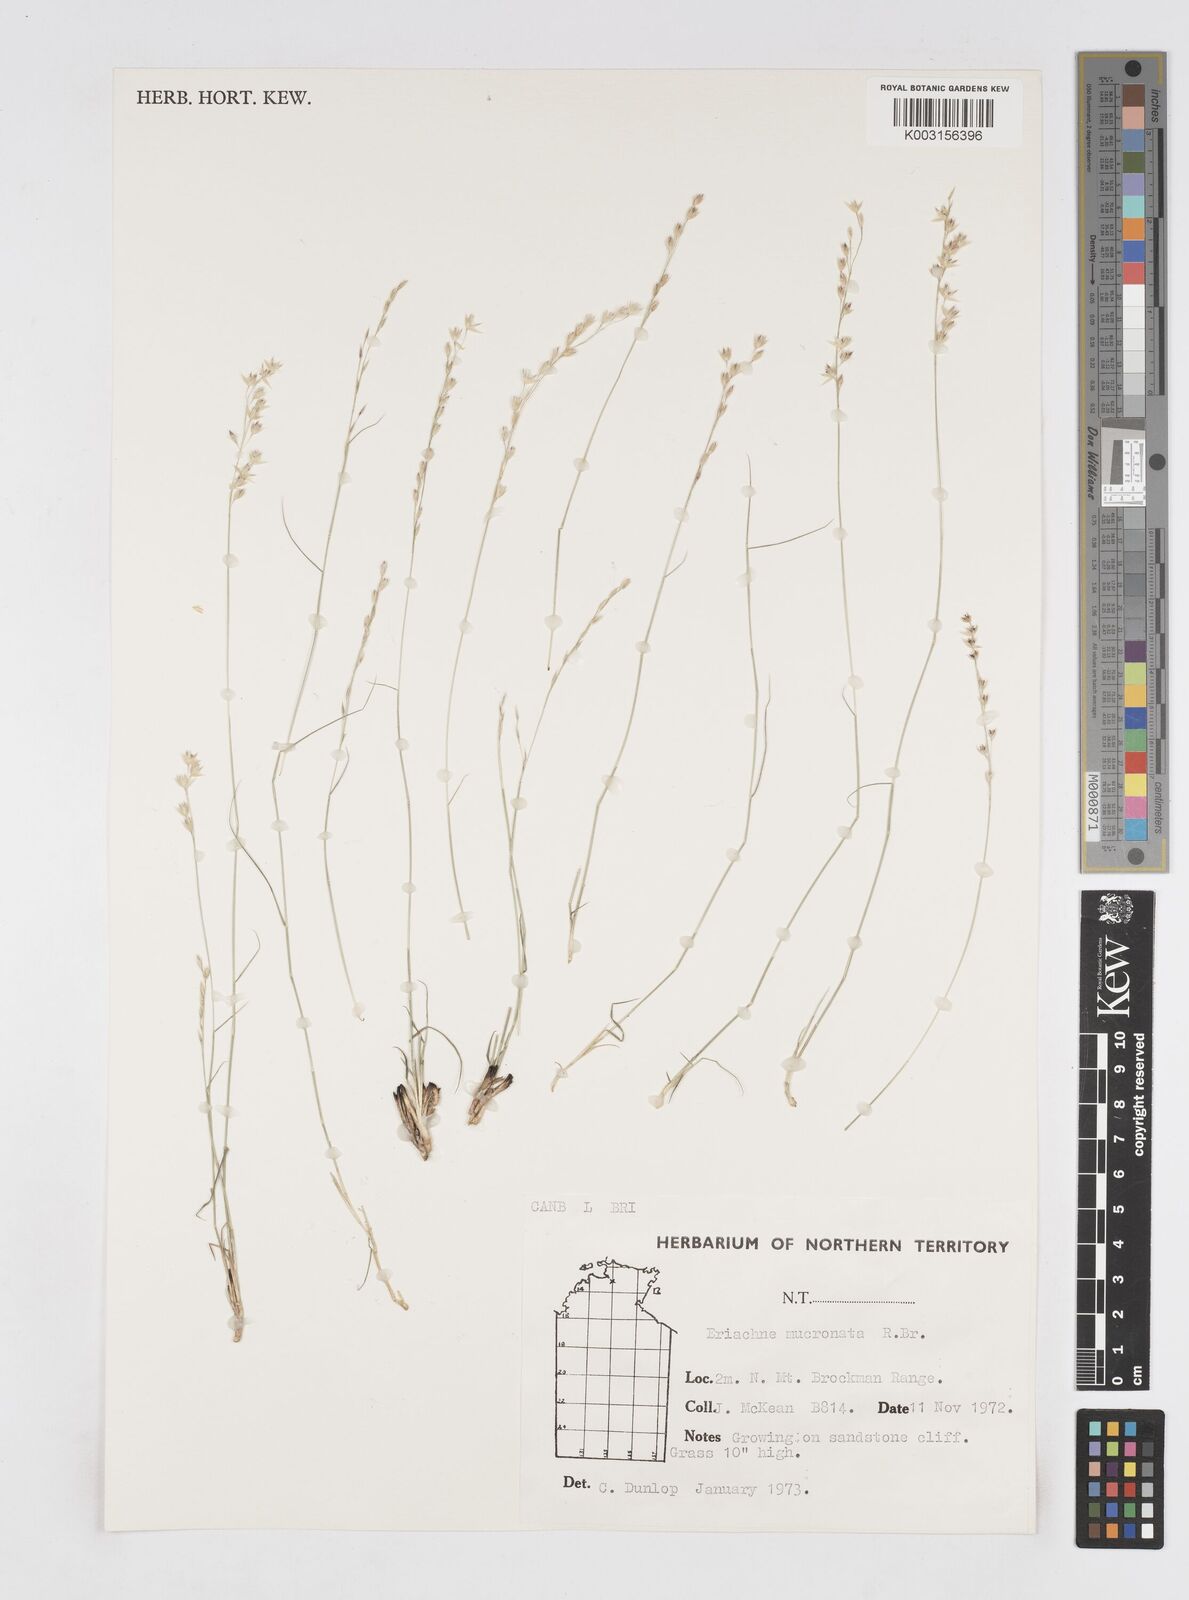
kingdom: Plantae
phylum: Tracheophyta
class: Liliopsida
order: Poales
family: Poaceae
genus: Eriachne
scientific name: Eriachne mucronata
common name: Mountain wanderrie grass
